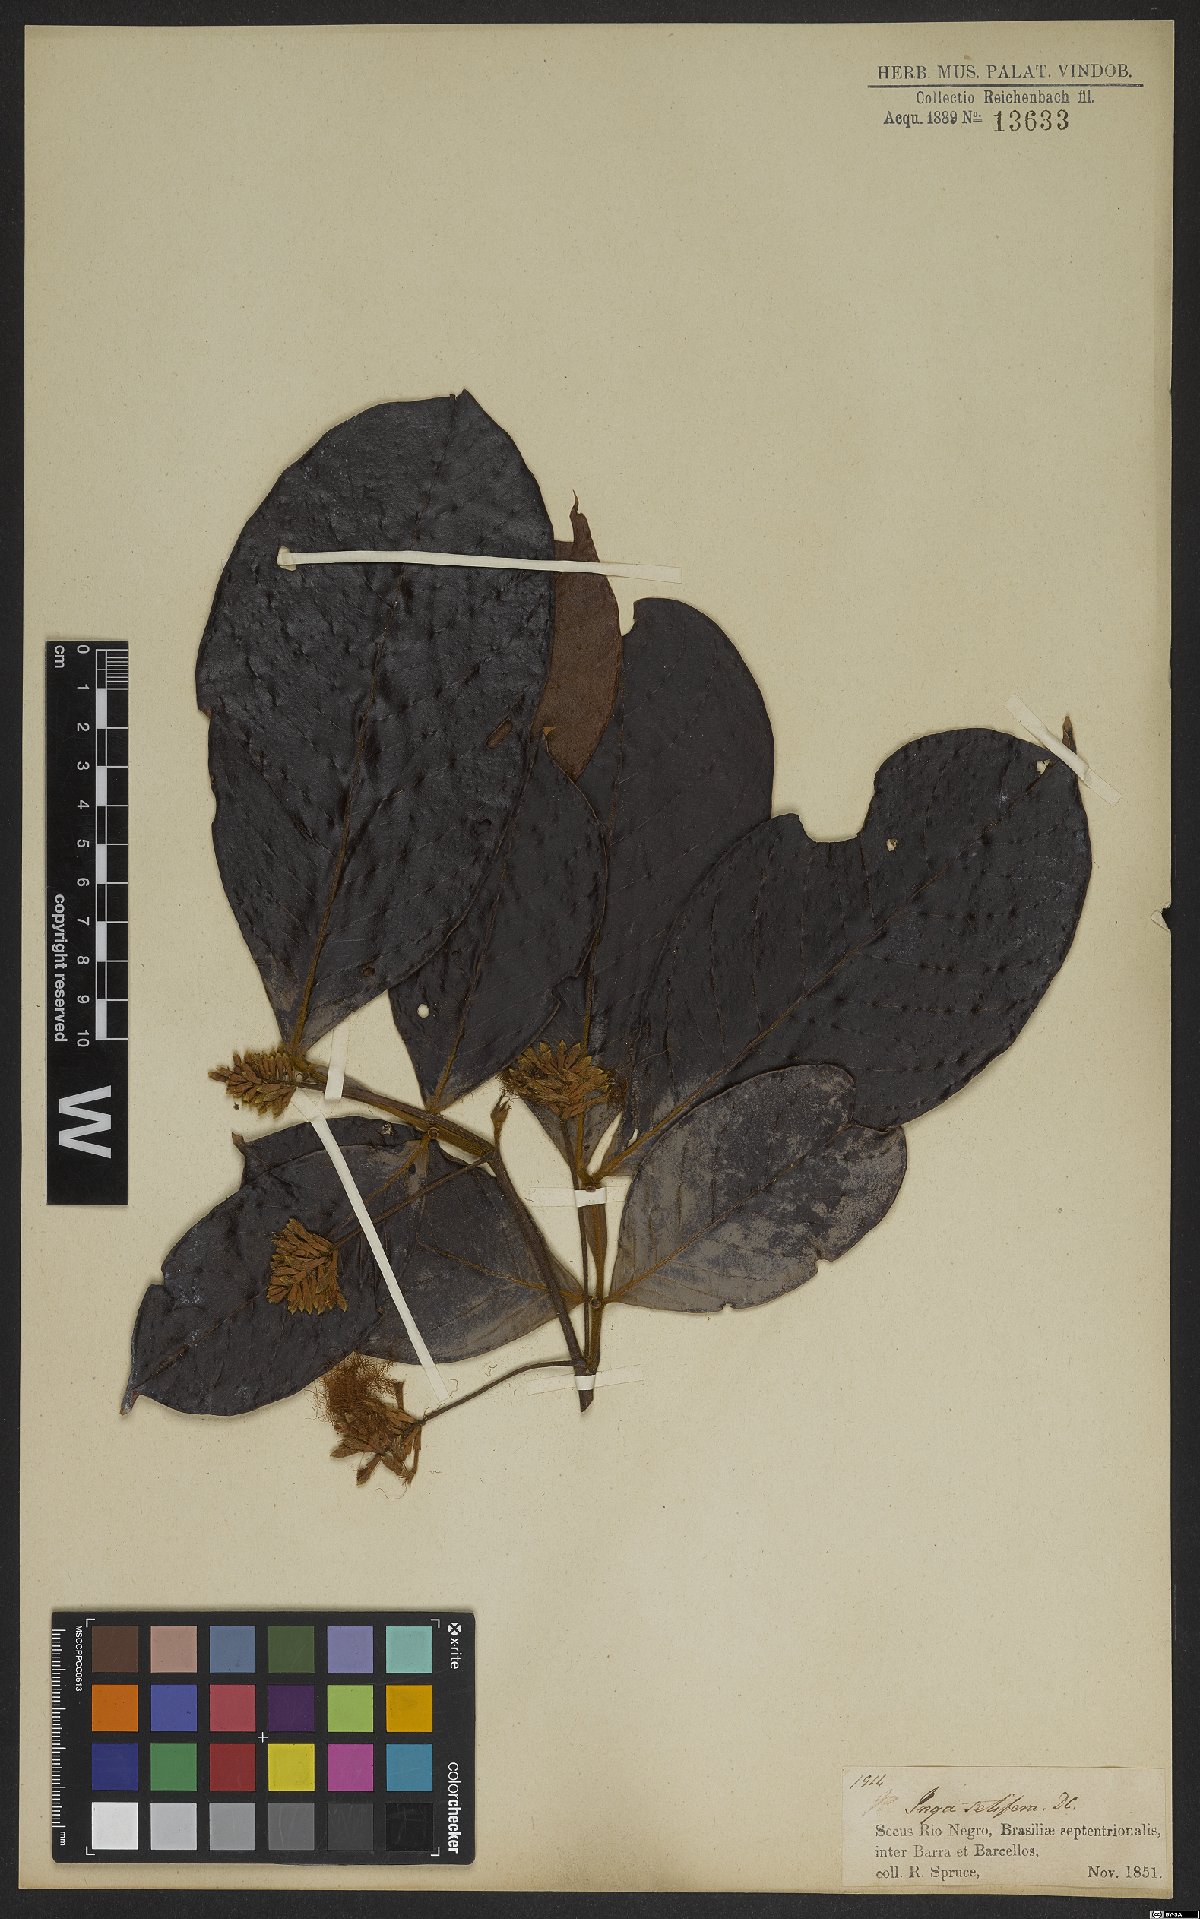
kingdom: Plantae
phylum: Tracheophyta
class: Magnoliopsida
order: Fabales
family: Fabaceae
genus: Inga
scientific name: Inga pilosula
